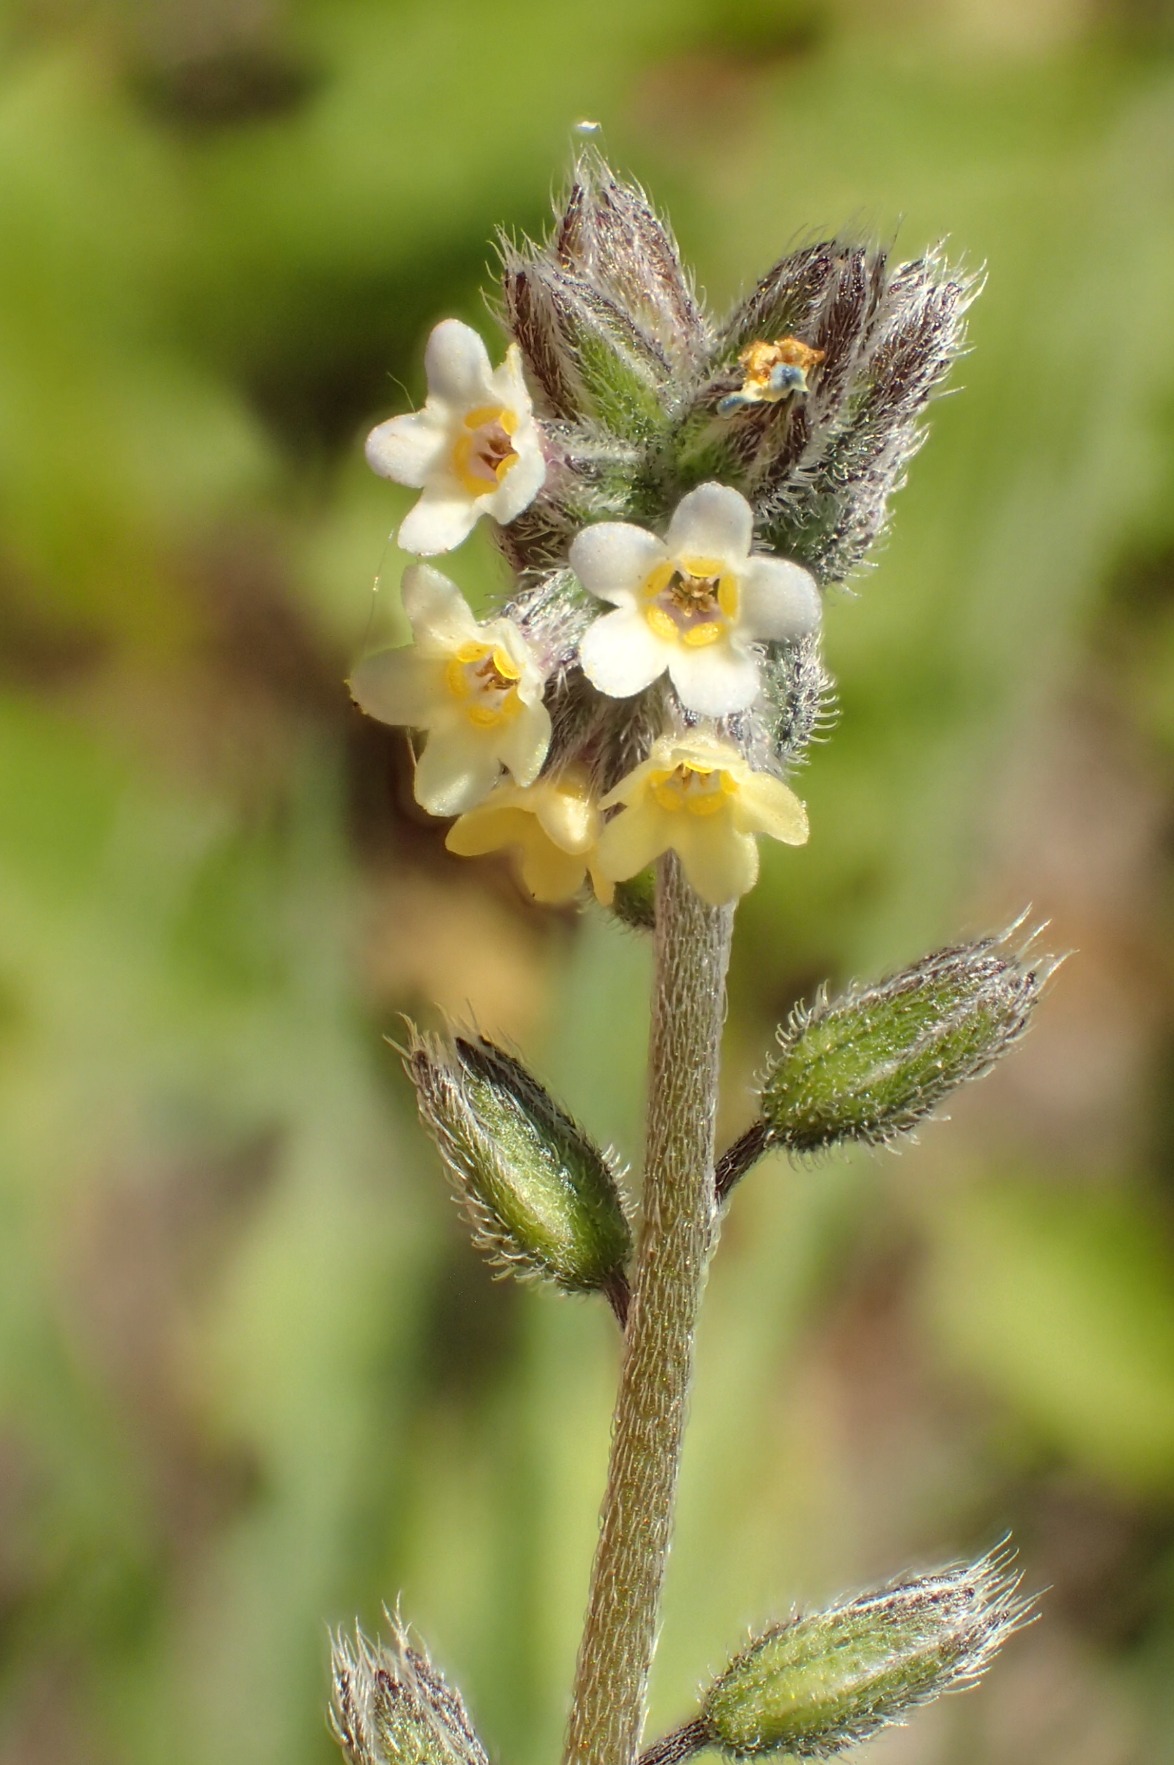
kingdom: Plantae
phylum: Tracheophyta
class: Magnoliopsida
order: Boraginales
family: Boraginaceae
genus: Myosotis
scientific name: Myosotis discolor
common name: Forskelligfarvet forglemmigej
